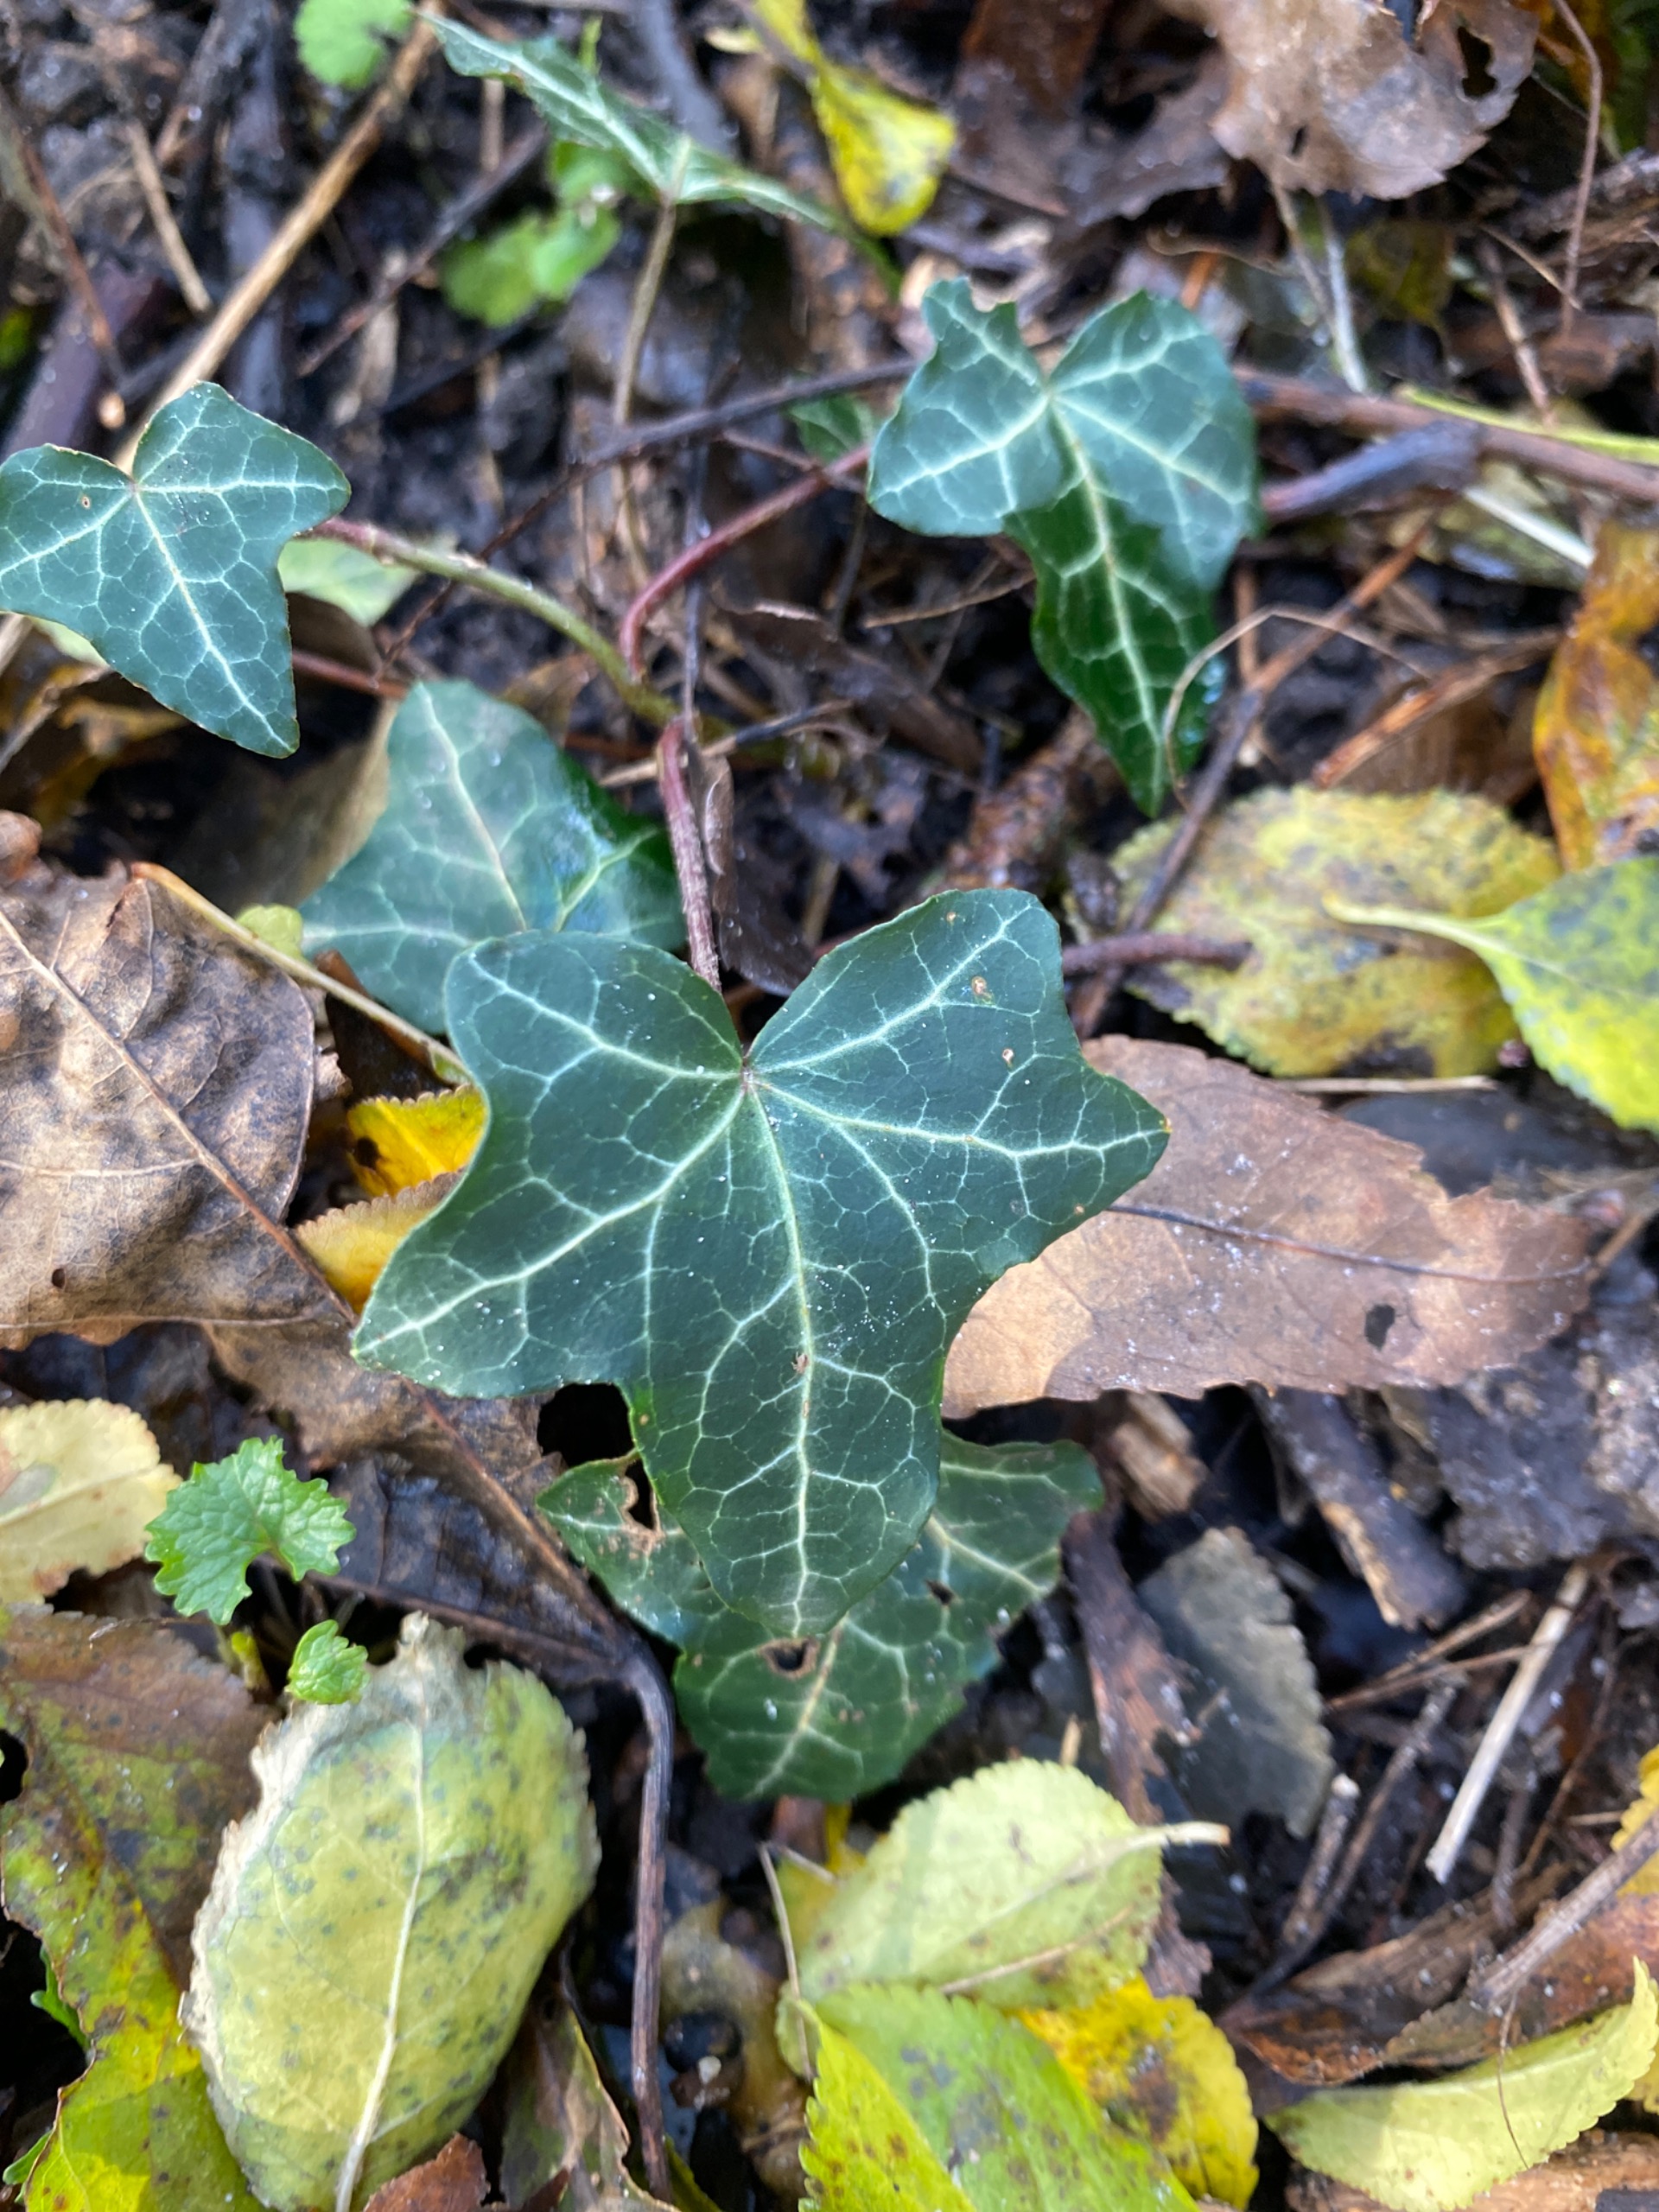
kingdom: Plantae
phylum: Tracheophyta
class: Magnoliopsida
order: Apiales
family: Araliaceae
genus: Hedera
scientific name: Hedera helix
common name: Vedbend
